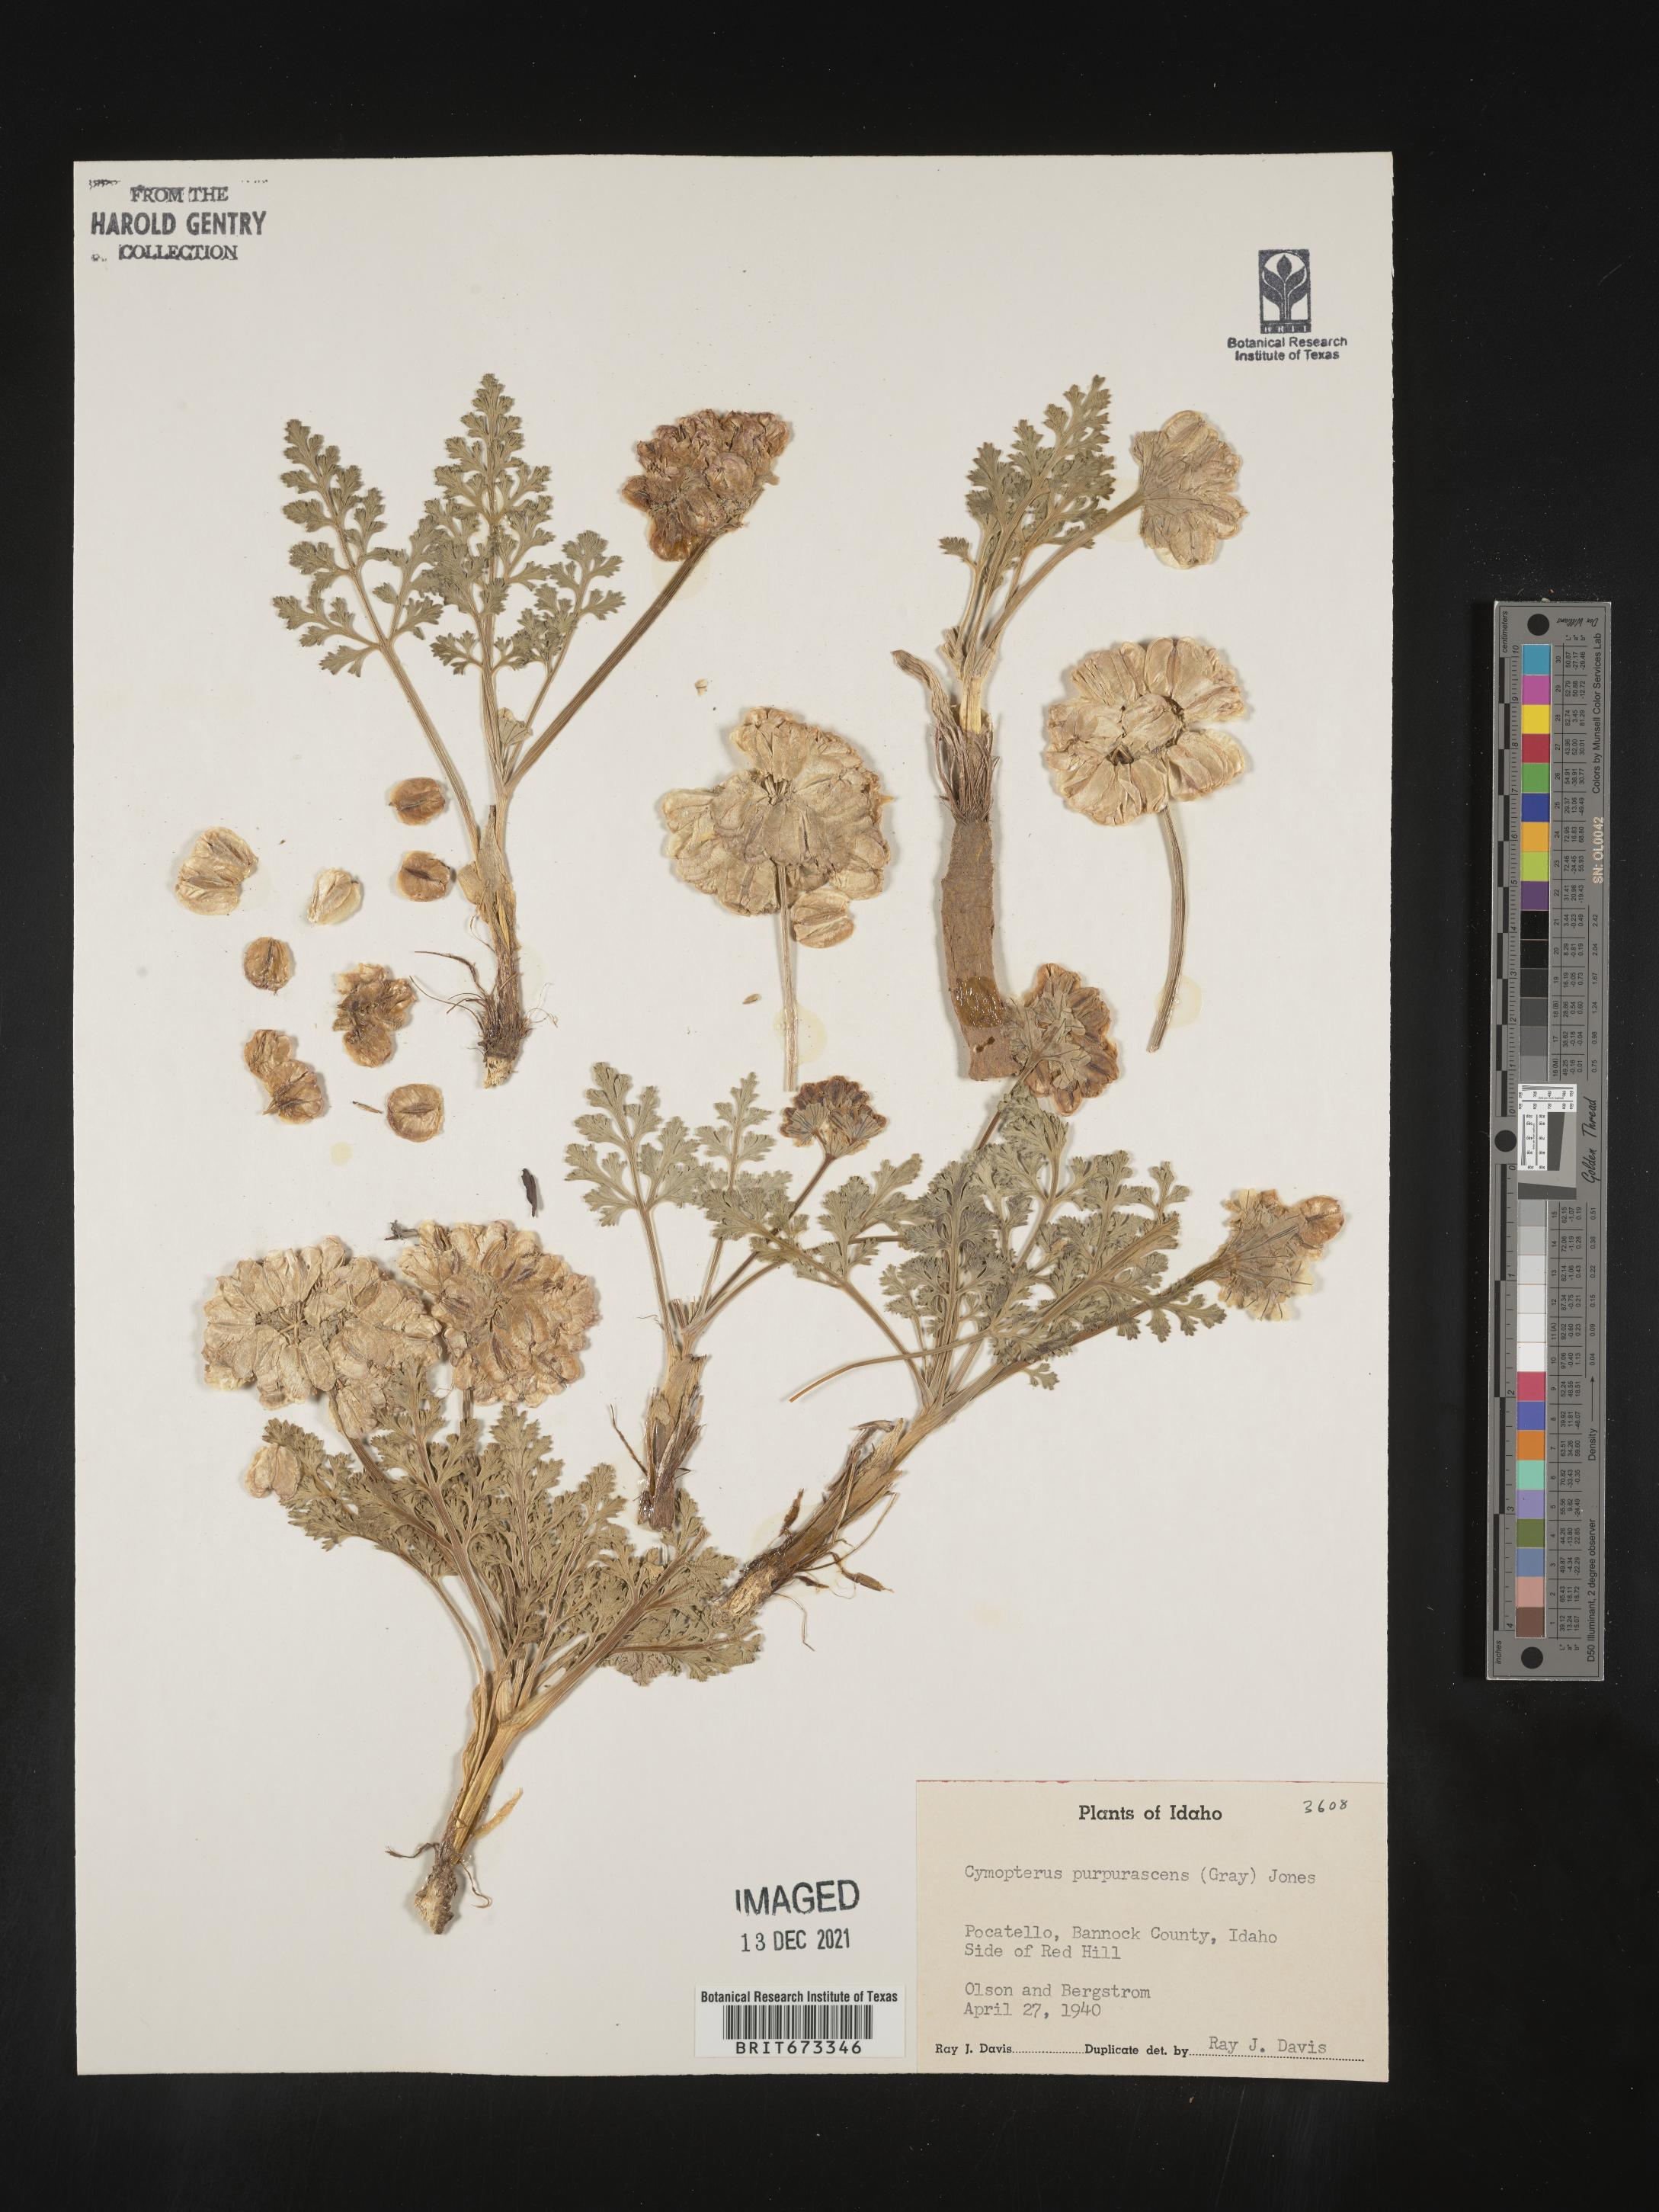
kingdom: Plantae
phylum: Tracheophyta
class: Magnoliopsida
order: Apiales
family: Apiaceae
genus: Vesper
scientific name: Vesper purpurascens
